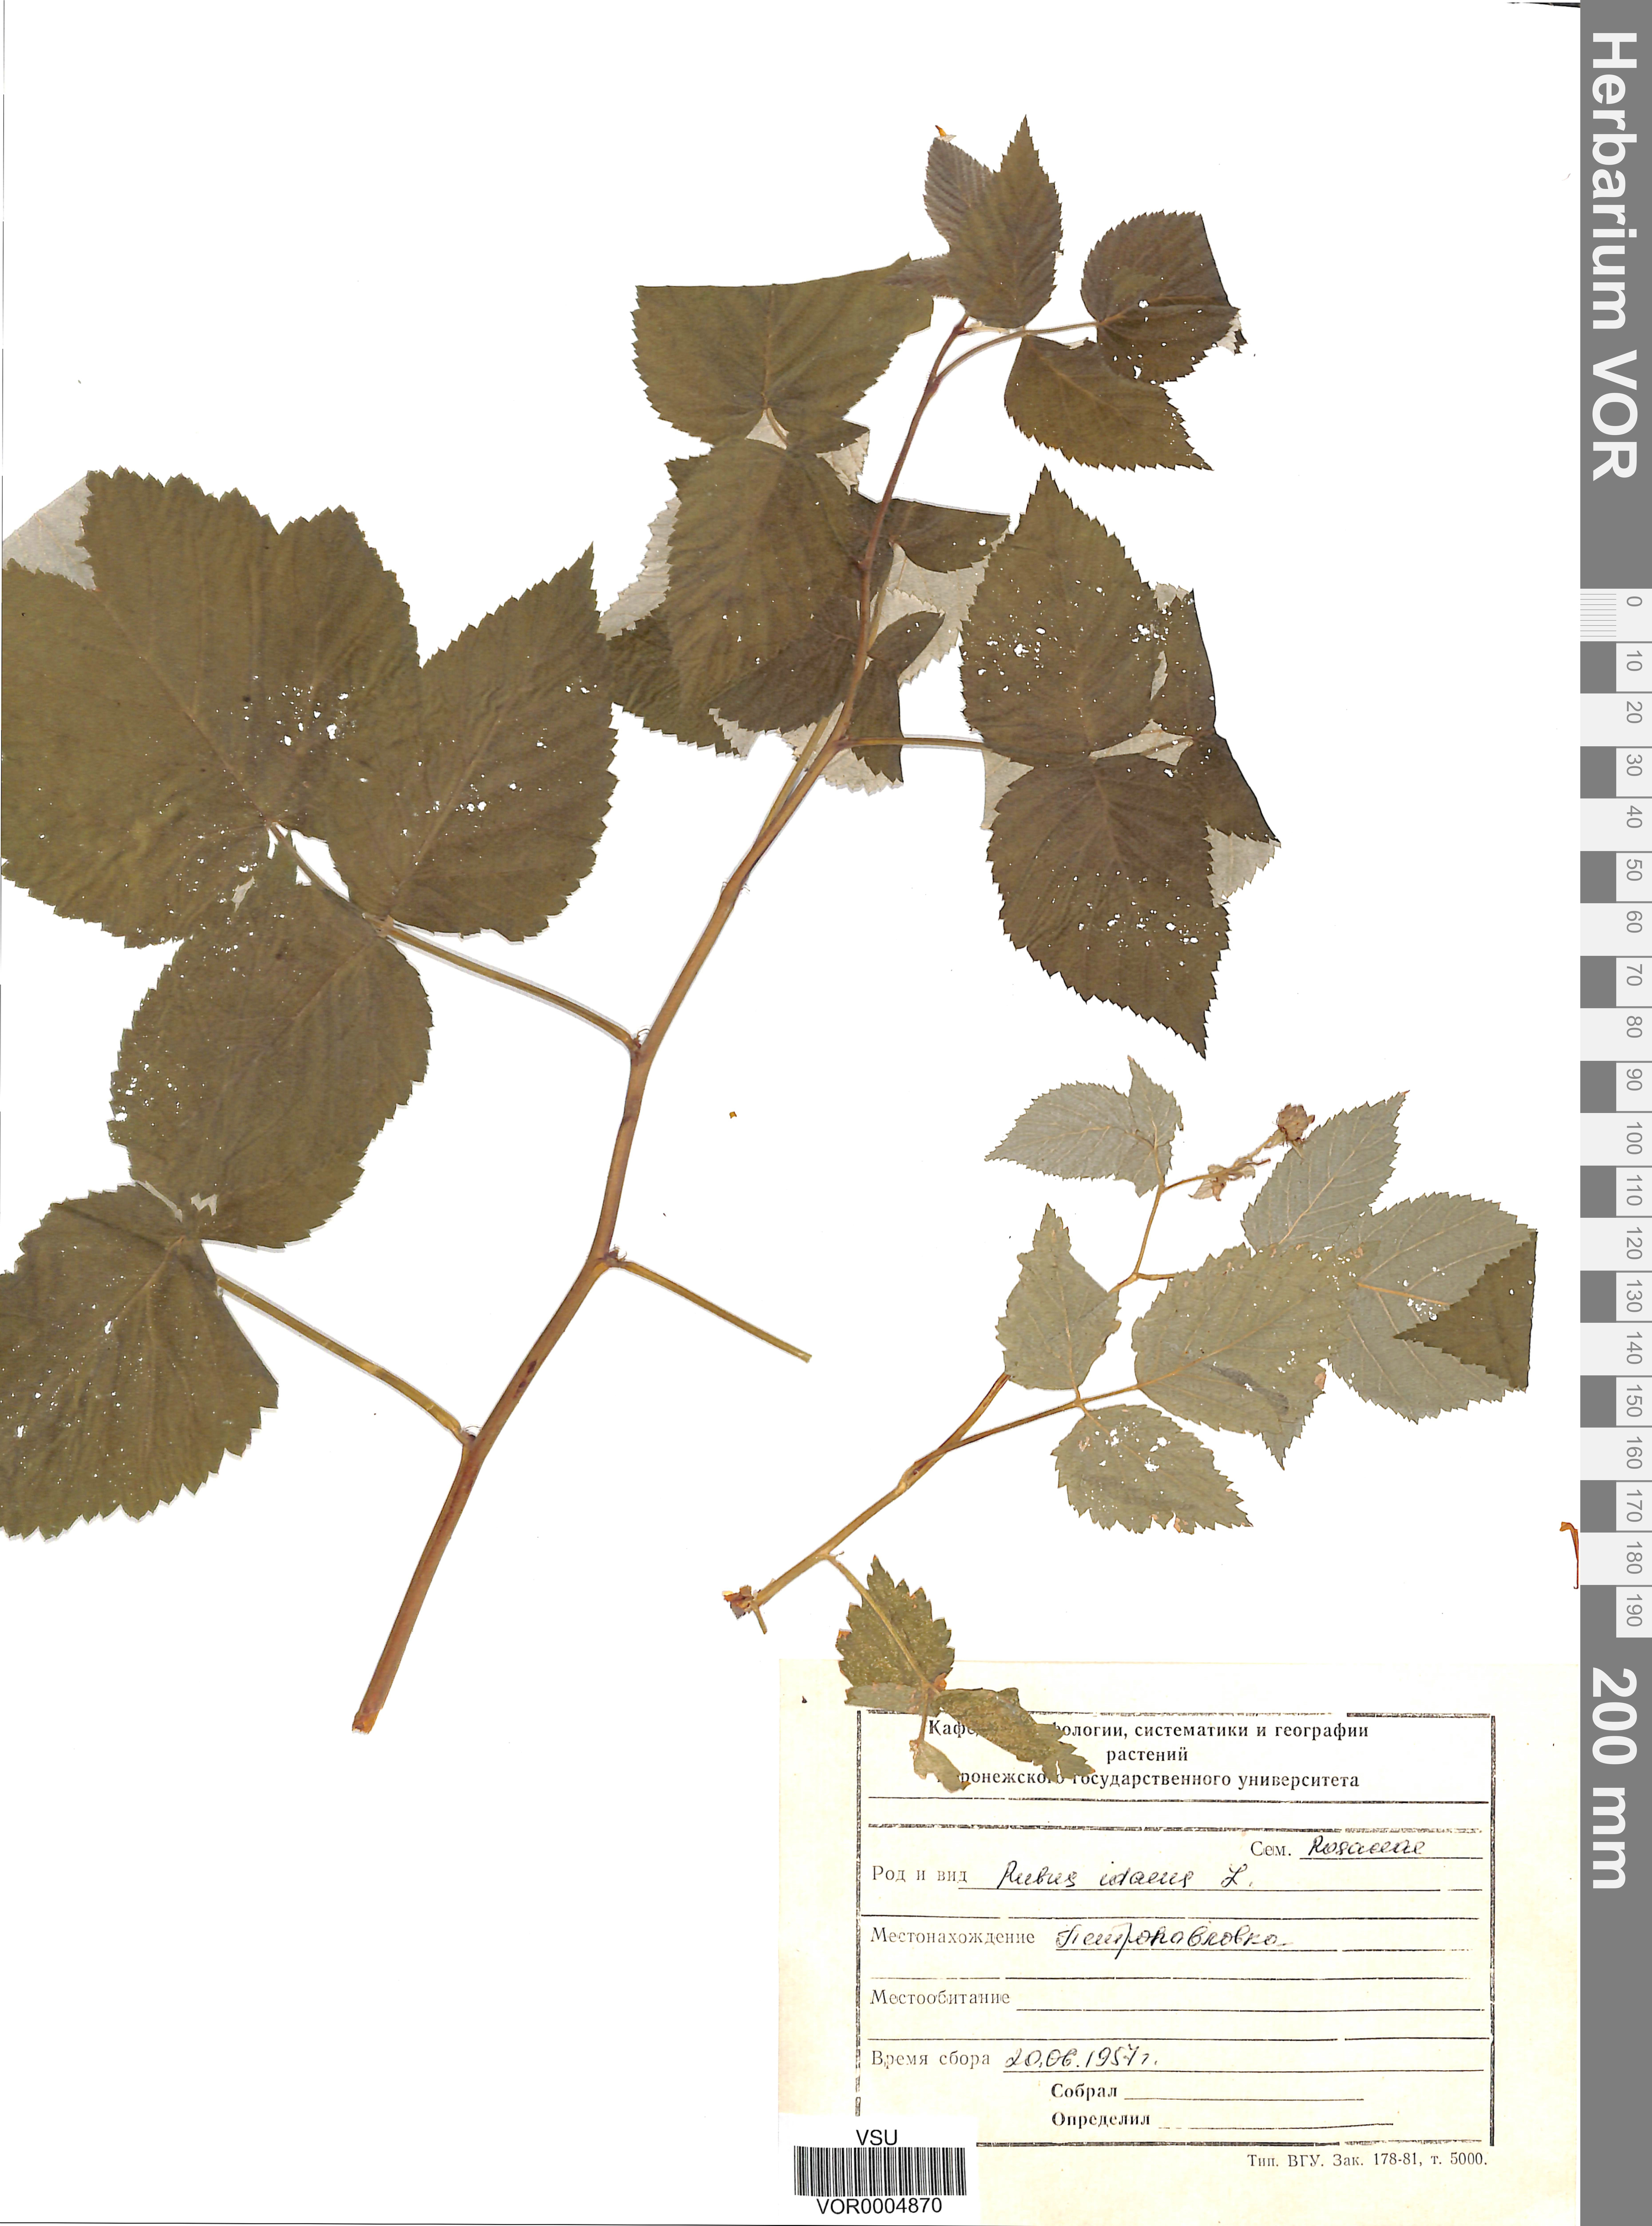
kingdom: Plantae
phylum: Tracheophyta
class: Magnoliopsida
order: Rosales
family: Rosaceae
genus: Rubus
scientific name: Rubus idaeus
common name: Raspberry
